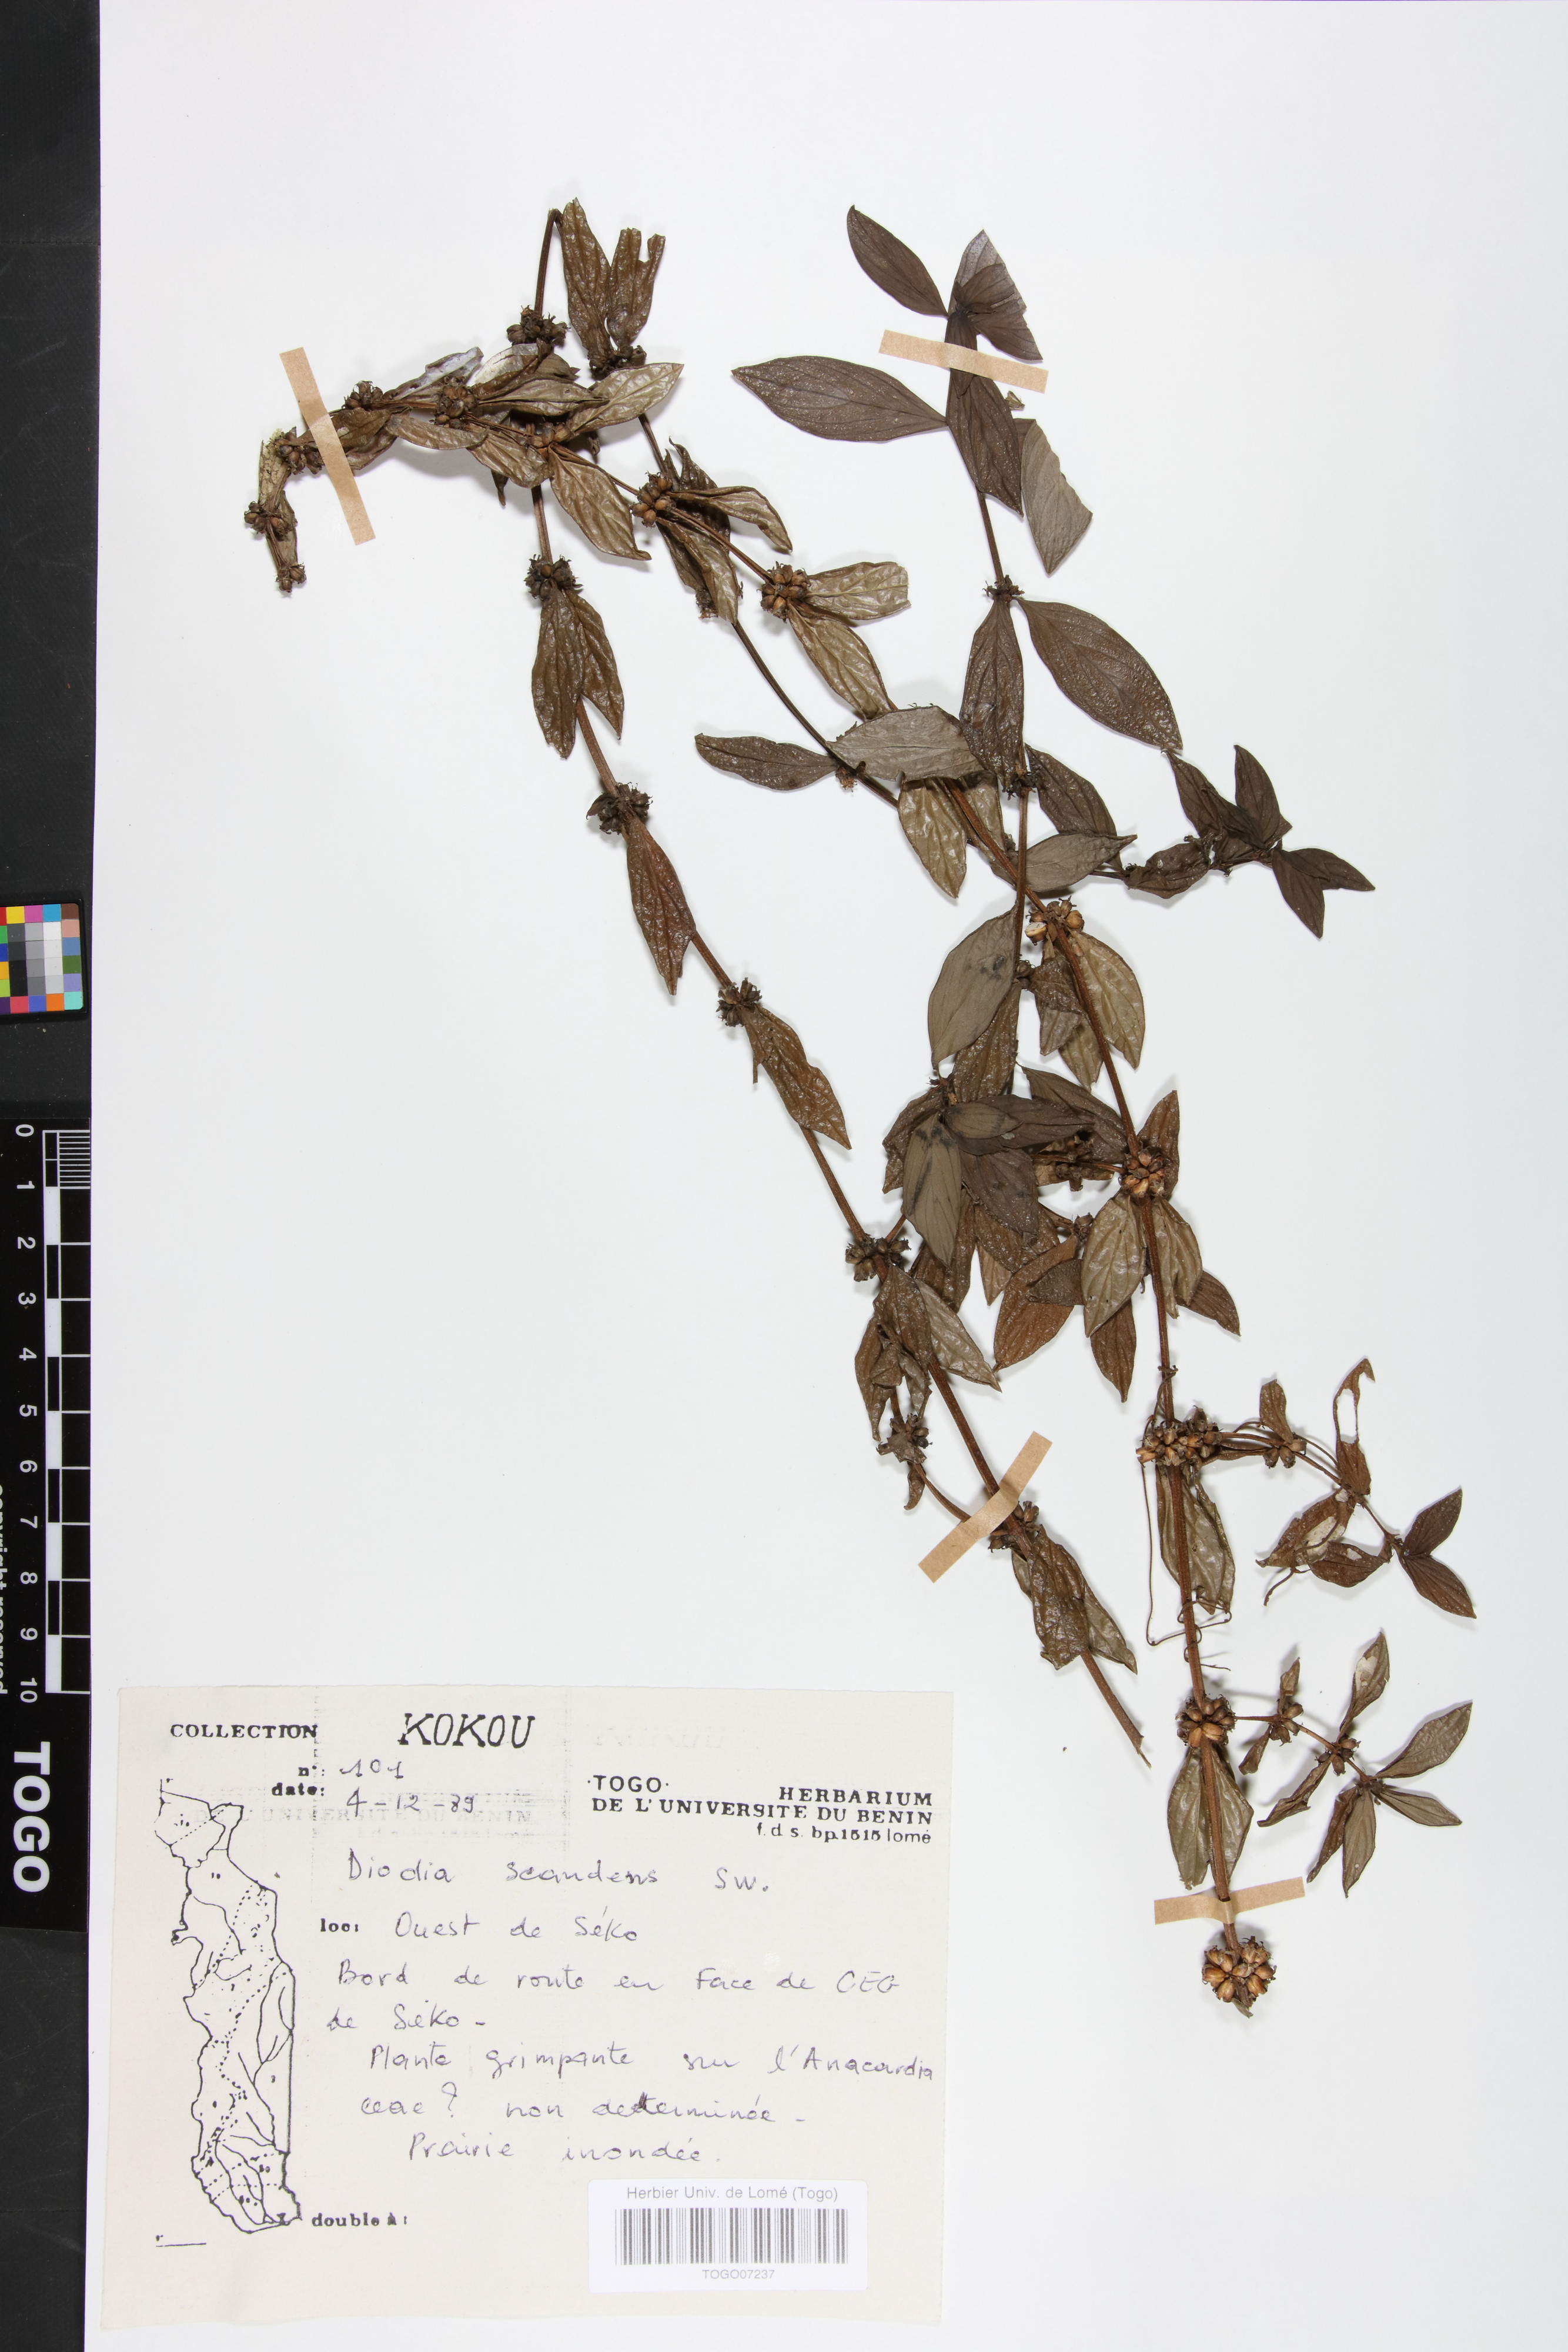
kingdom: Plantae
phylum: Tracheophyta
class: Magnoliopsida
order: Gentianales
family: Rubiaceae
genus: Hexasepalum
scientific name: Hexasepalum scandens
